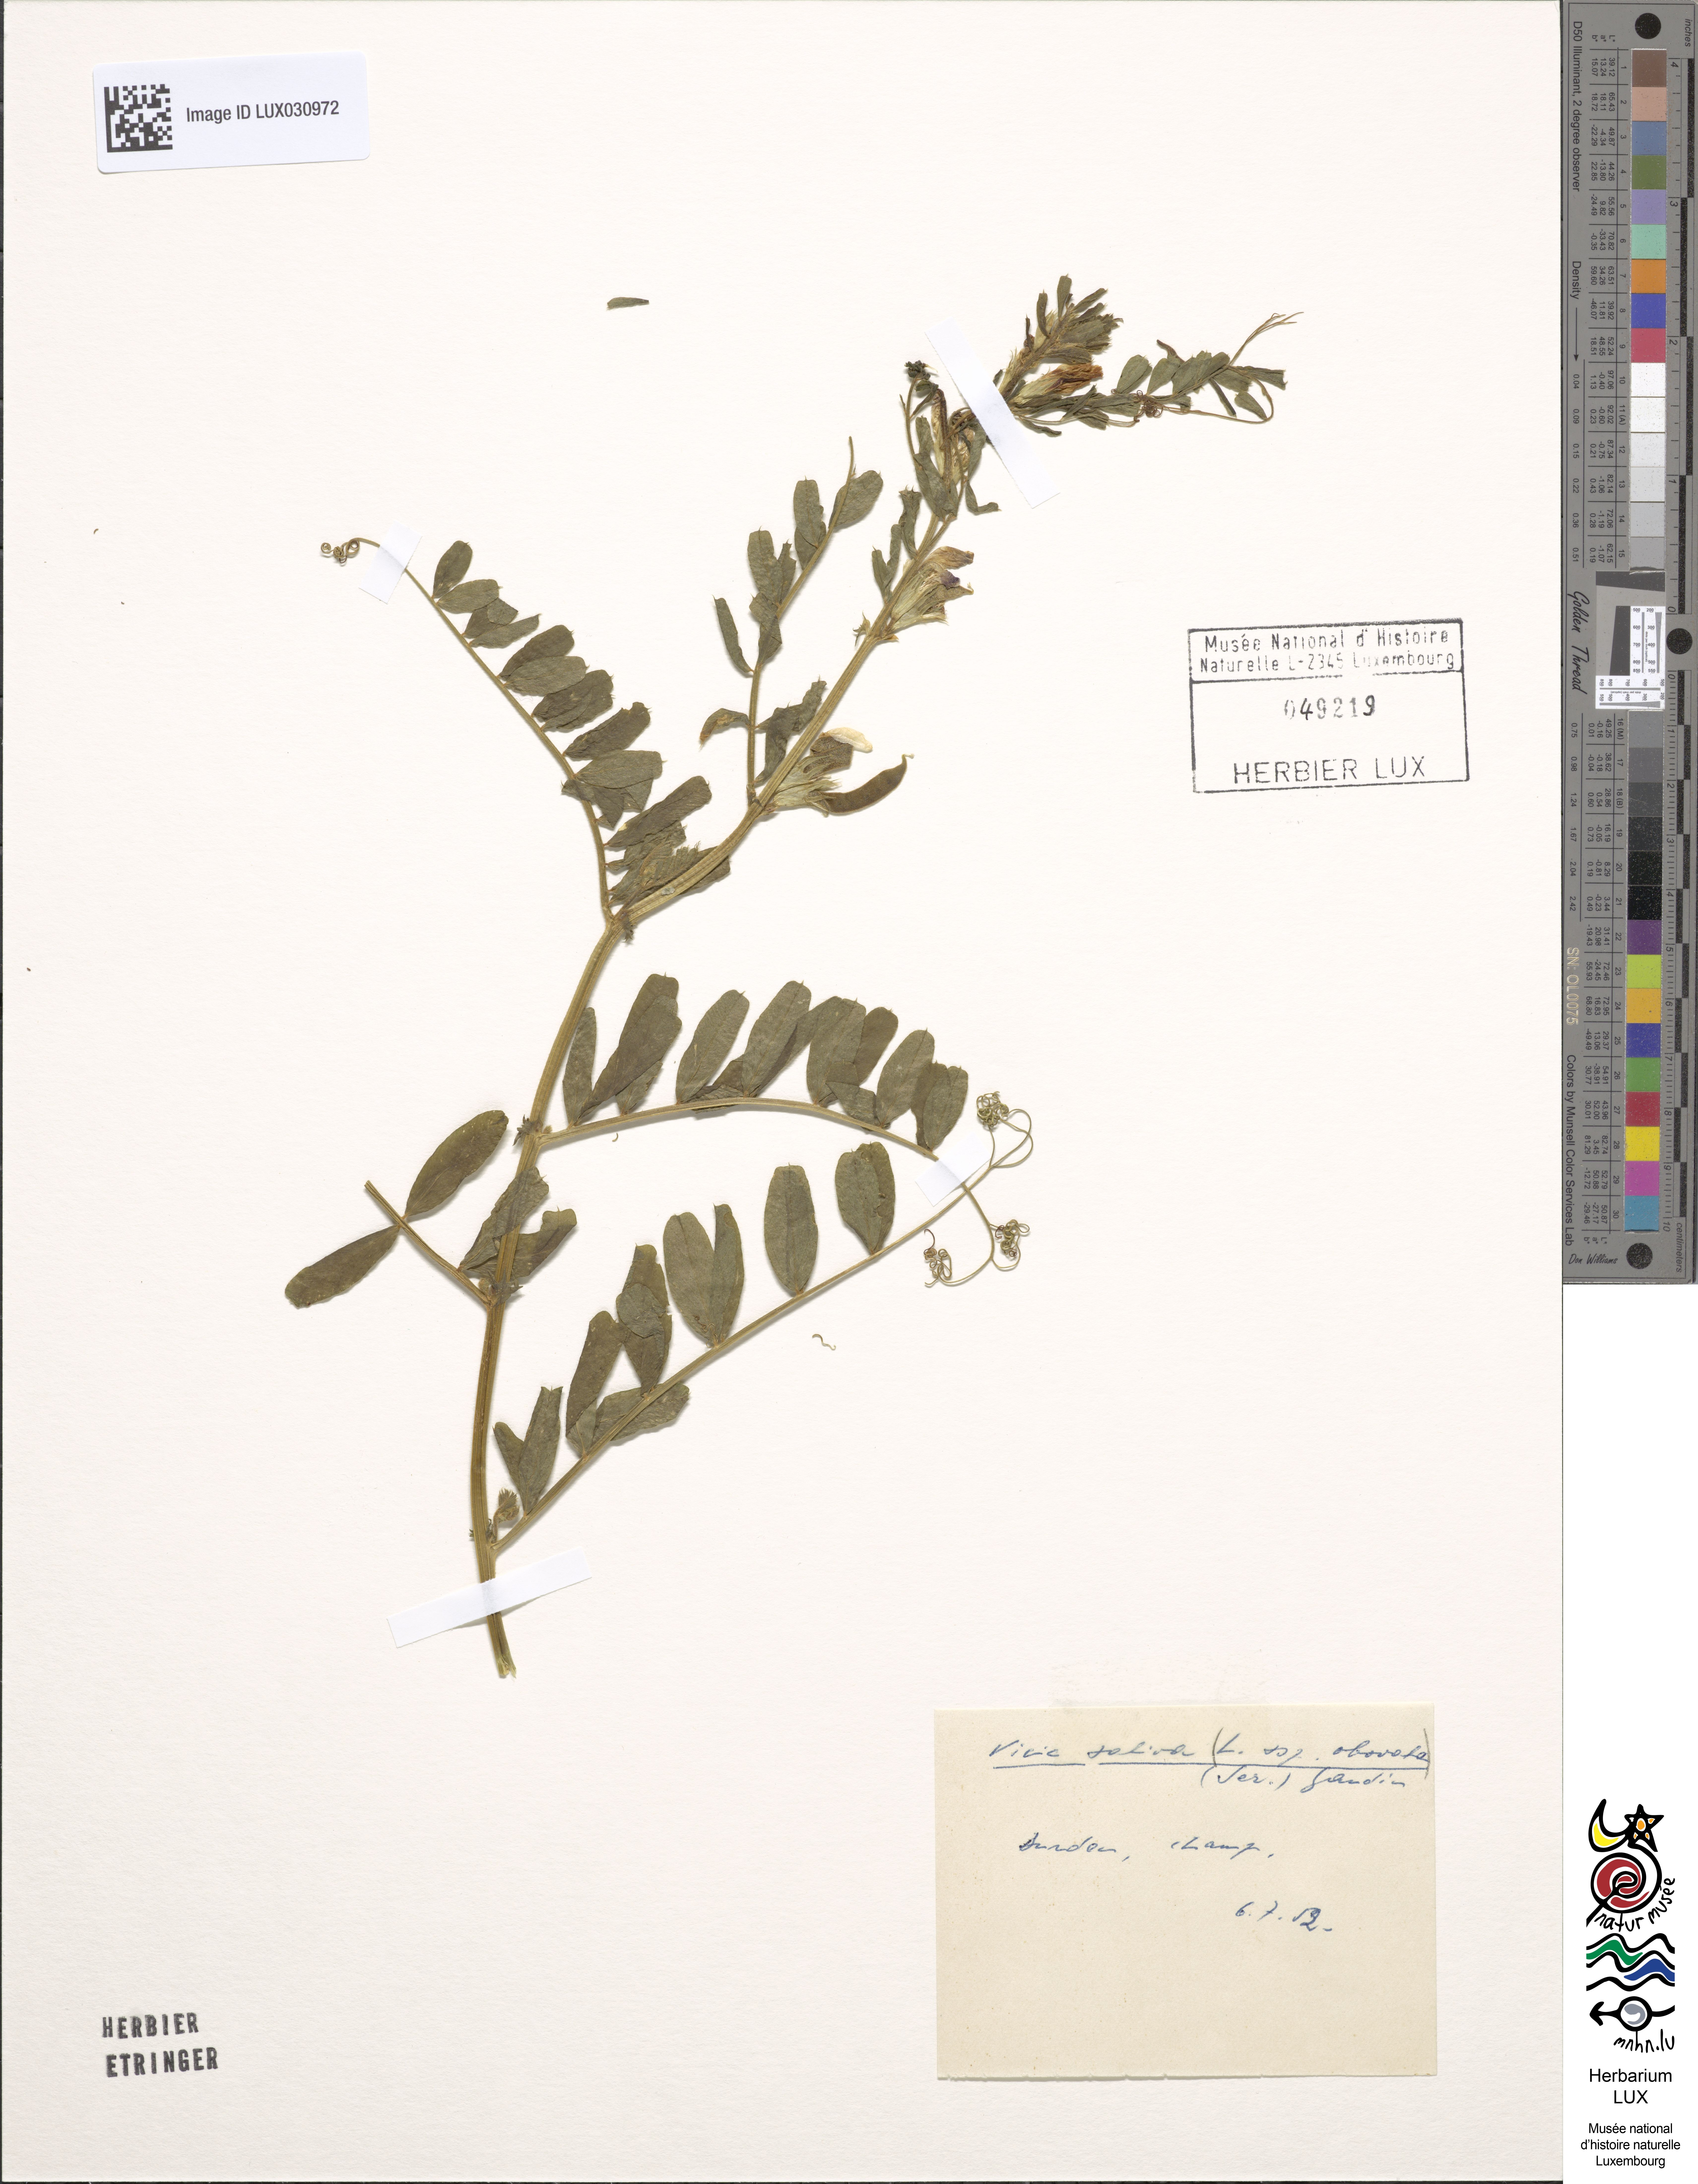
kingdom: Plantae
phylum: Tracheophyta
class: Magnoliopsida
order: Fabales
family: Fabaceae
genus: Vicia
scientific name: Vicia sativa
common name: Garden vetch
